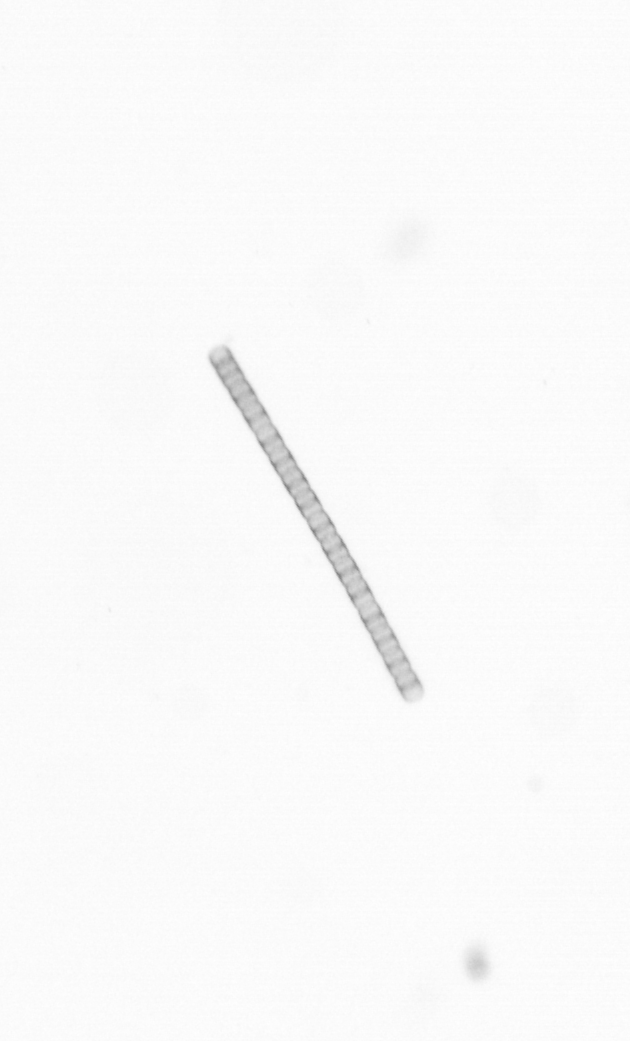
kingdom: Chromista
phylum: Ochrophyta
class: Bacillariophyceae
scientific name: Bacillariophyceae
